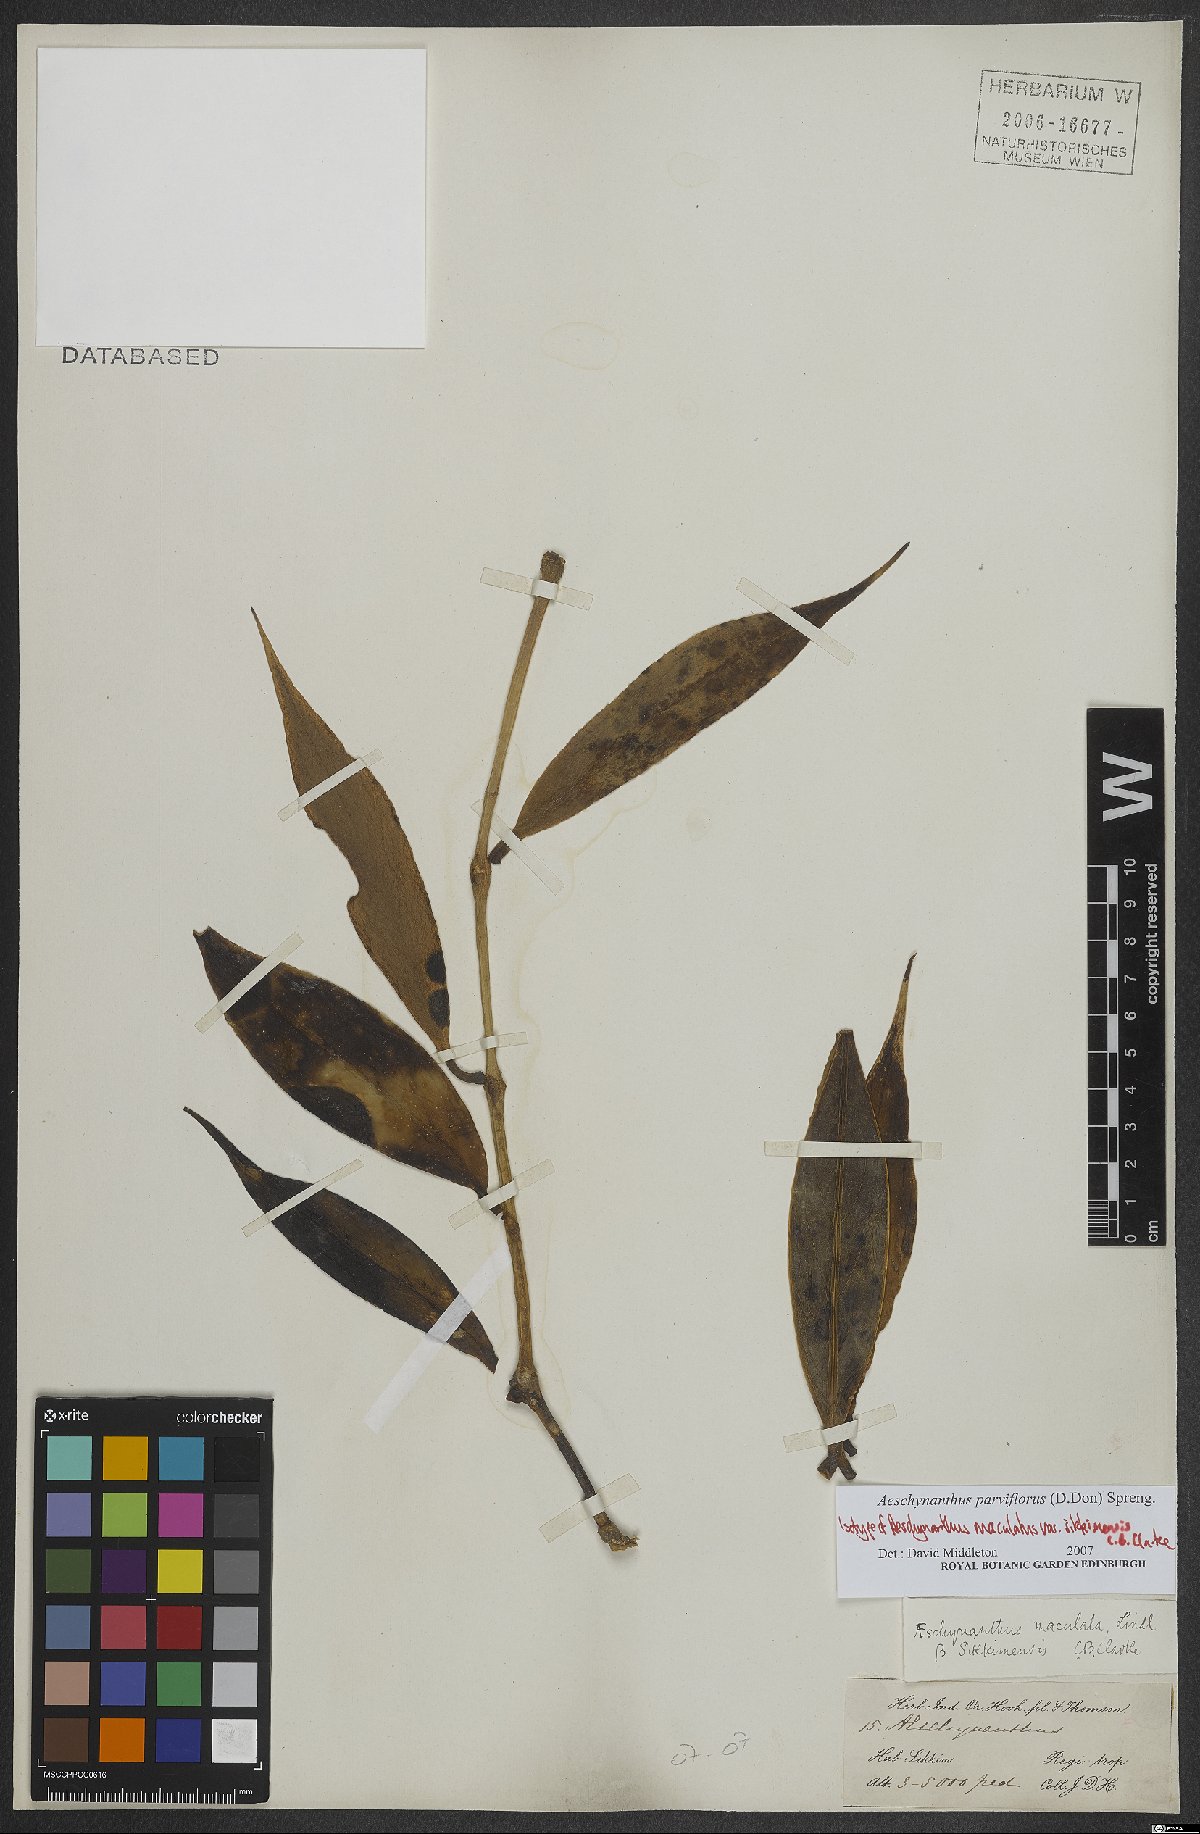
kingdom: Plantae
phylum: Tracheophyta
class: Magnoliopsida
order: Lamiales
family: Gesneriaceae
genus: Aeschynanthus
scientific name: Aeschynanthus parviflorus
